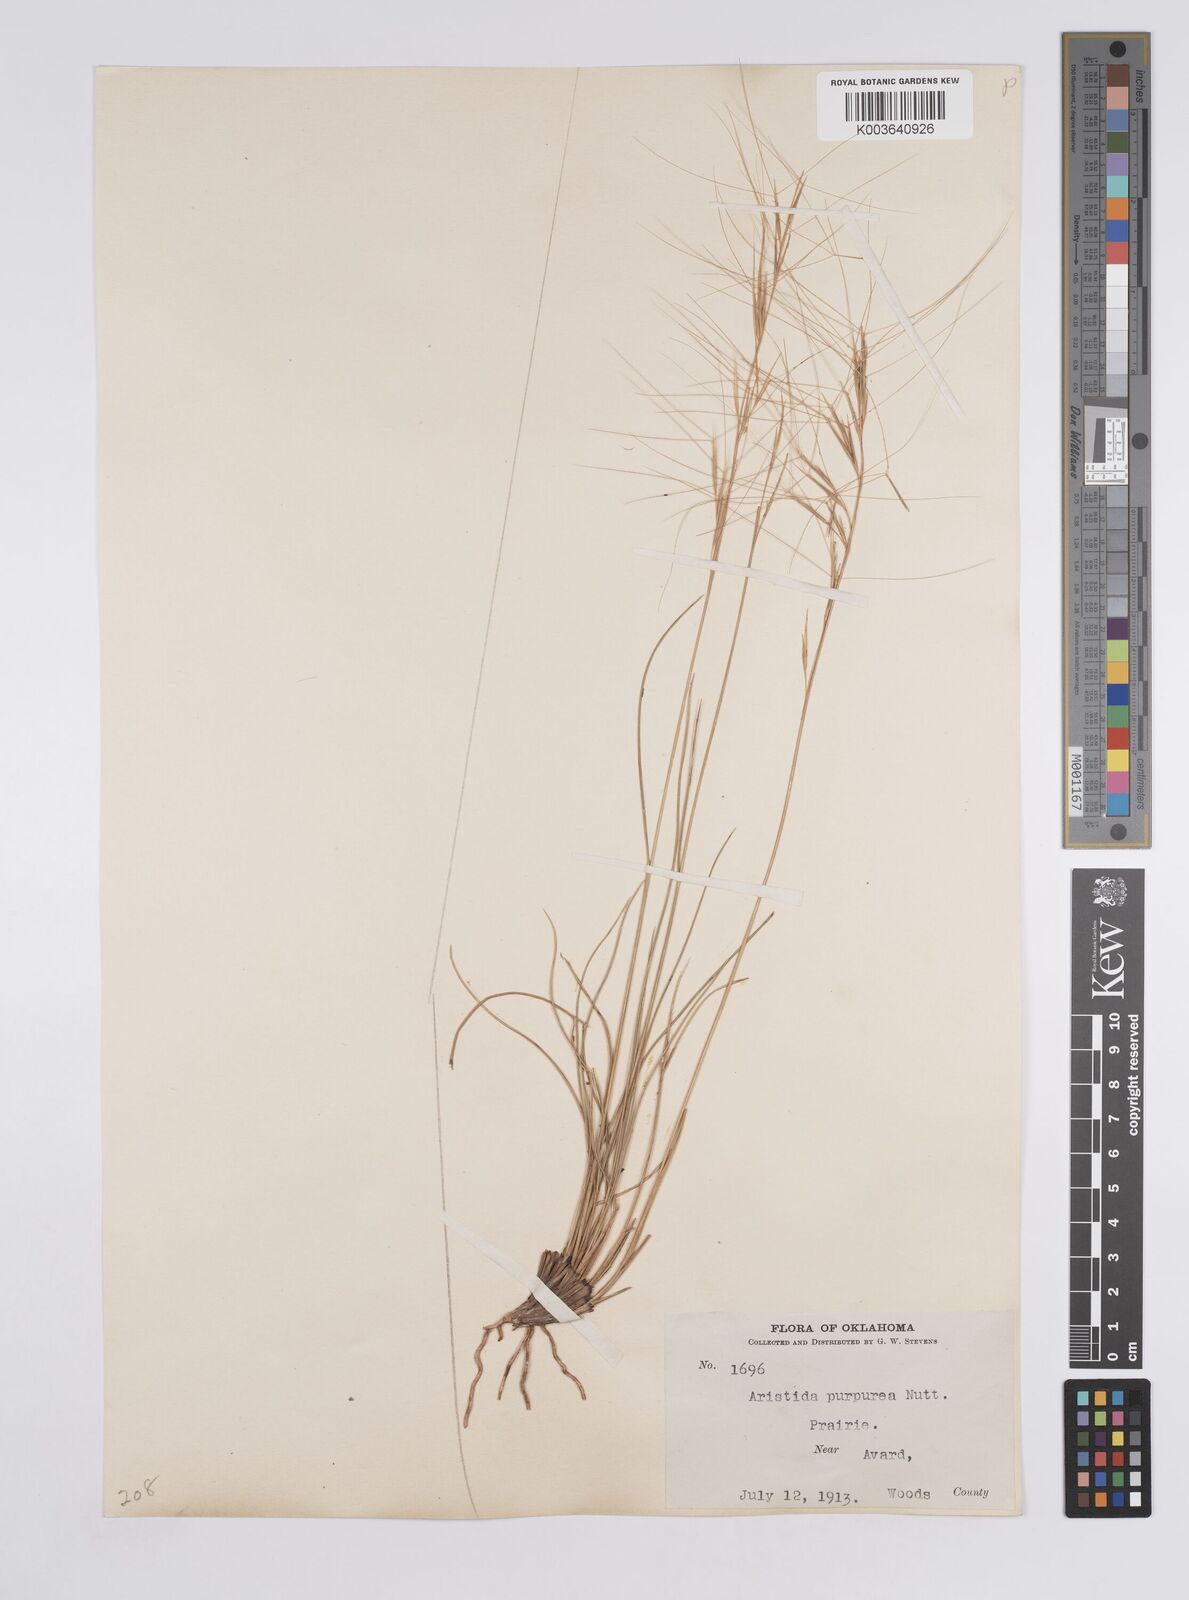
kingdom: Plantae
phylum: Tracheophyta
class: Liliopsida
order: Poales
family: Poaceae
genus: Aristida
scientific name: Aristida purpurea
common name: Purple threeawn
